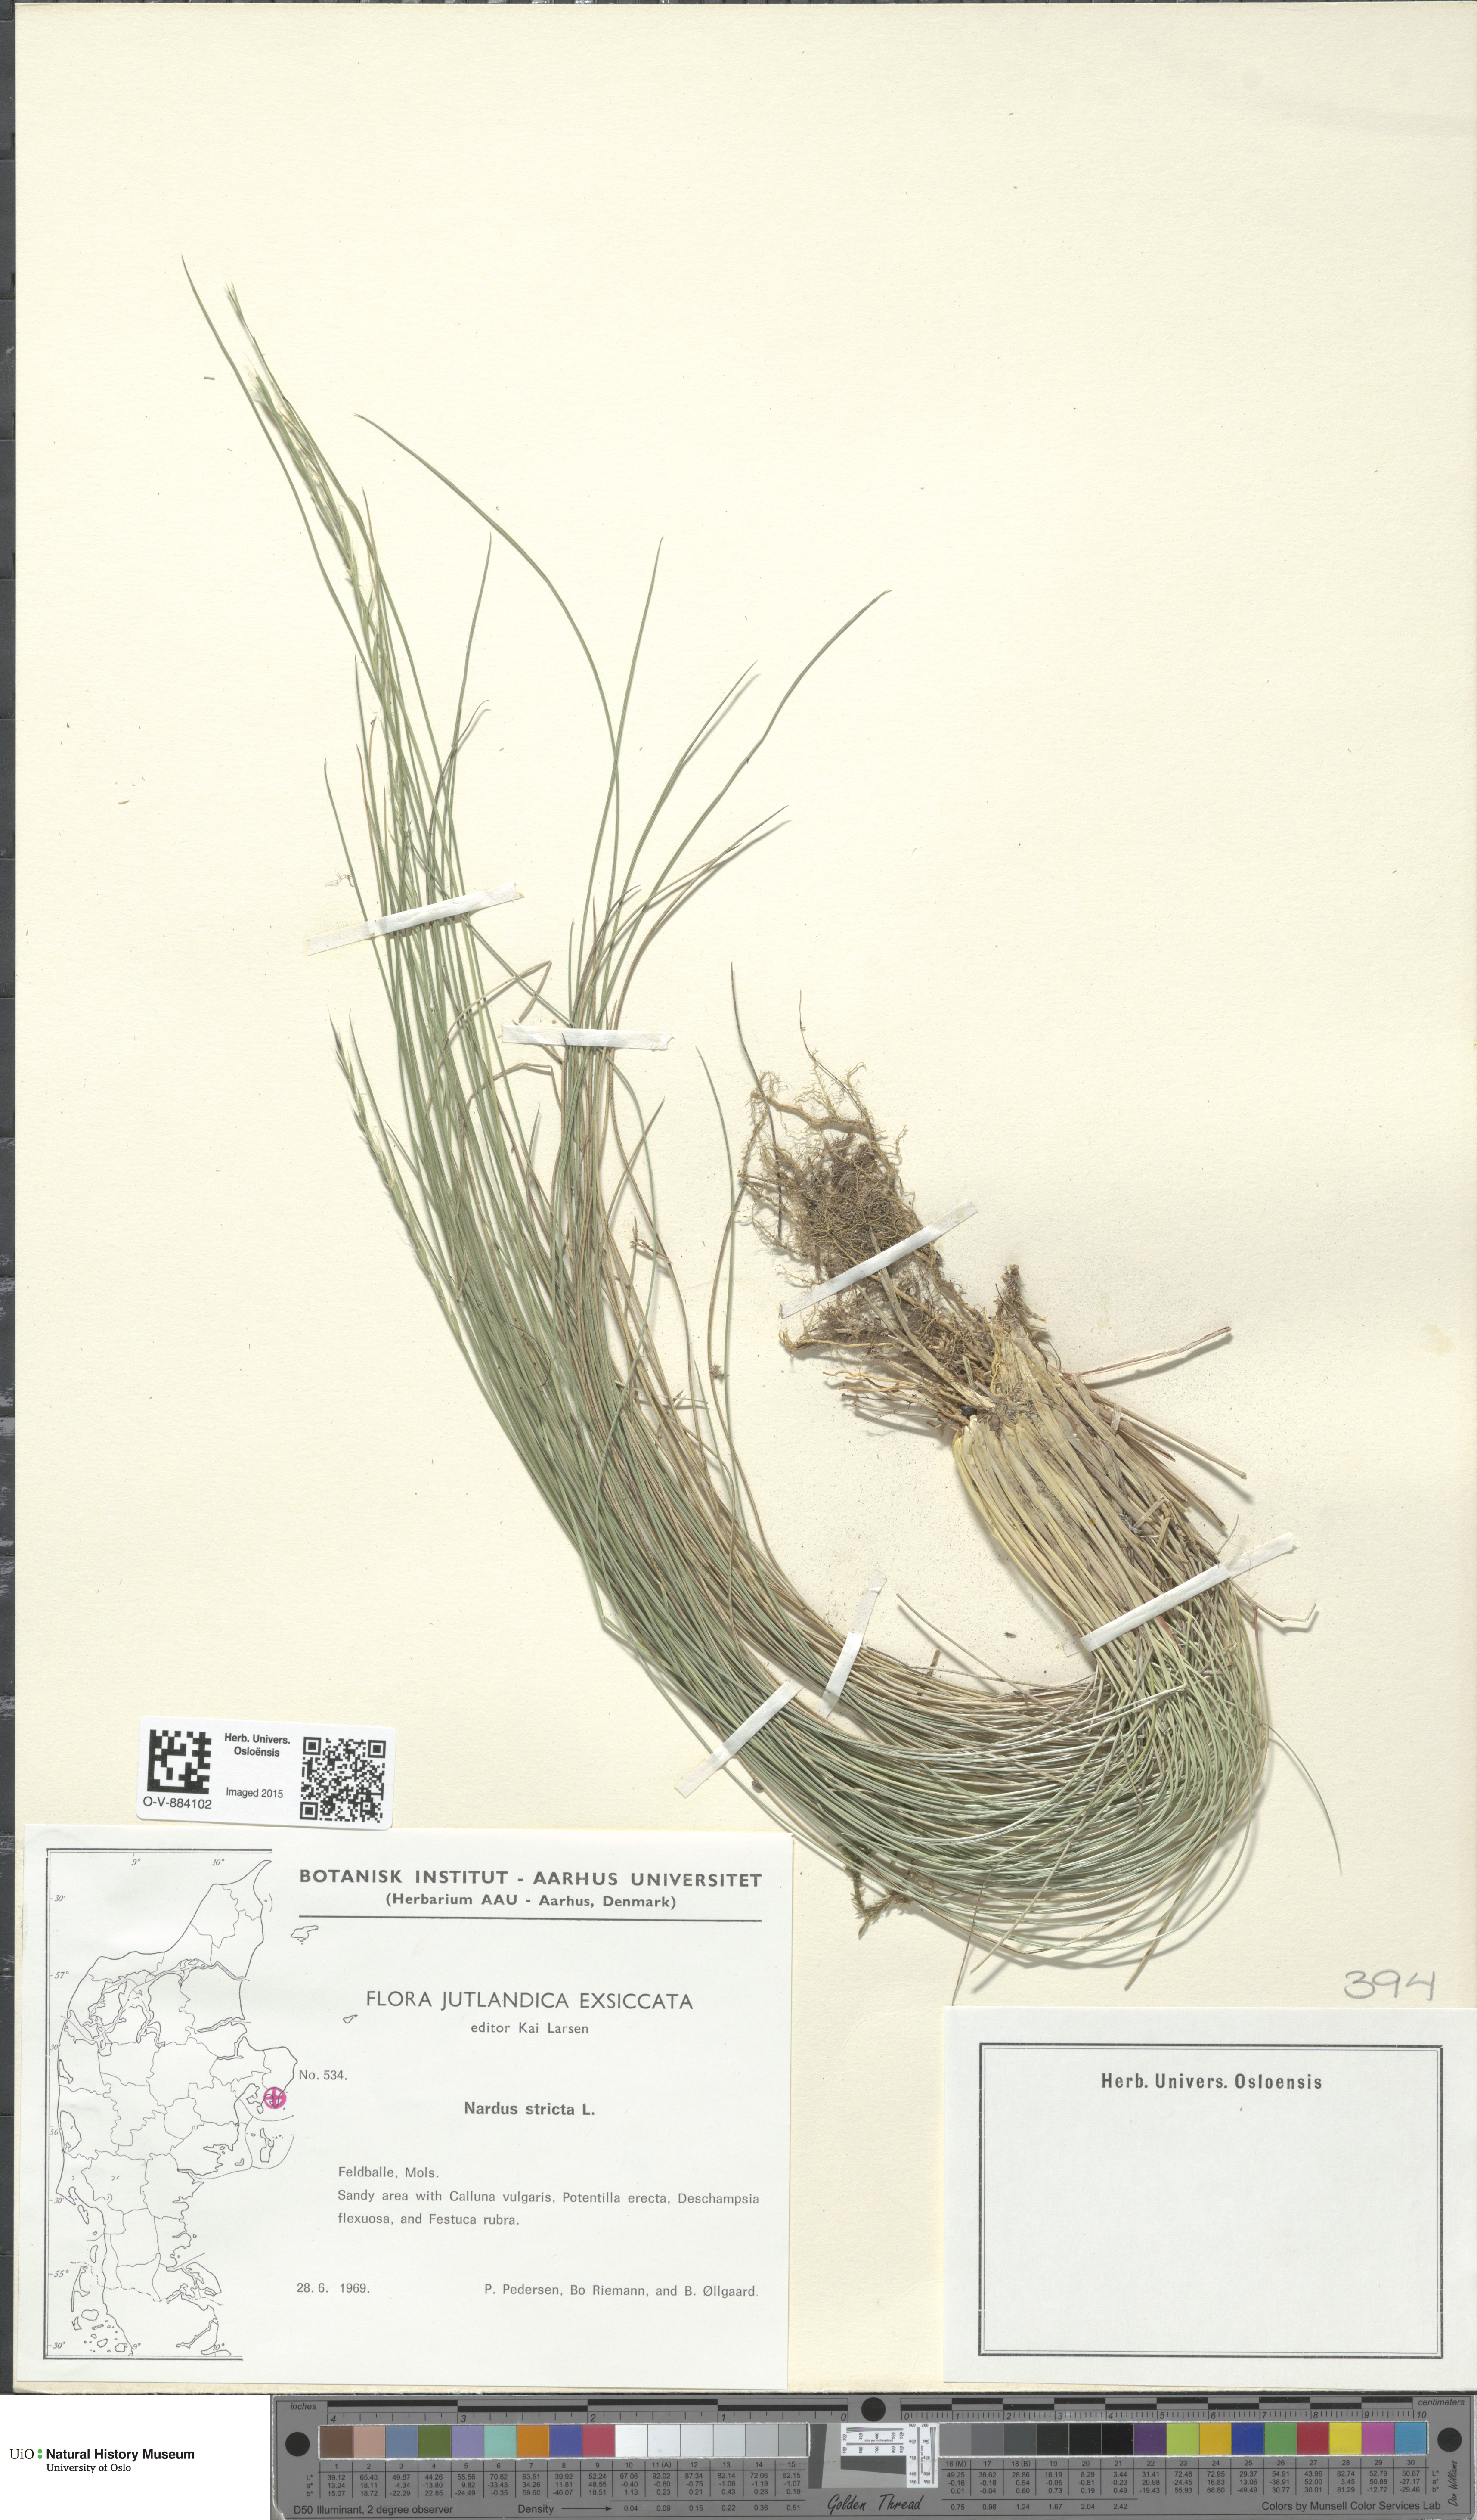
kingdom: Plantae
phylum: Tracheophyta
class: Liliopsida
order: Poales
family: Poaceae
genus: Nardus
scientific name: Nardus stricta
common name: Mat-grass
